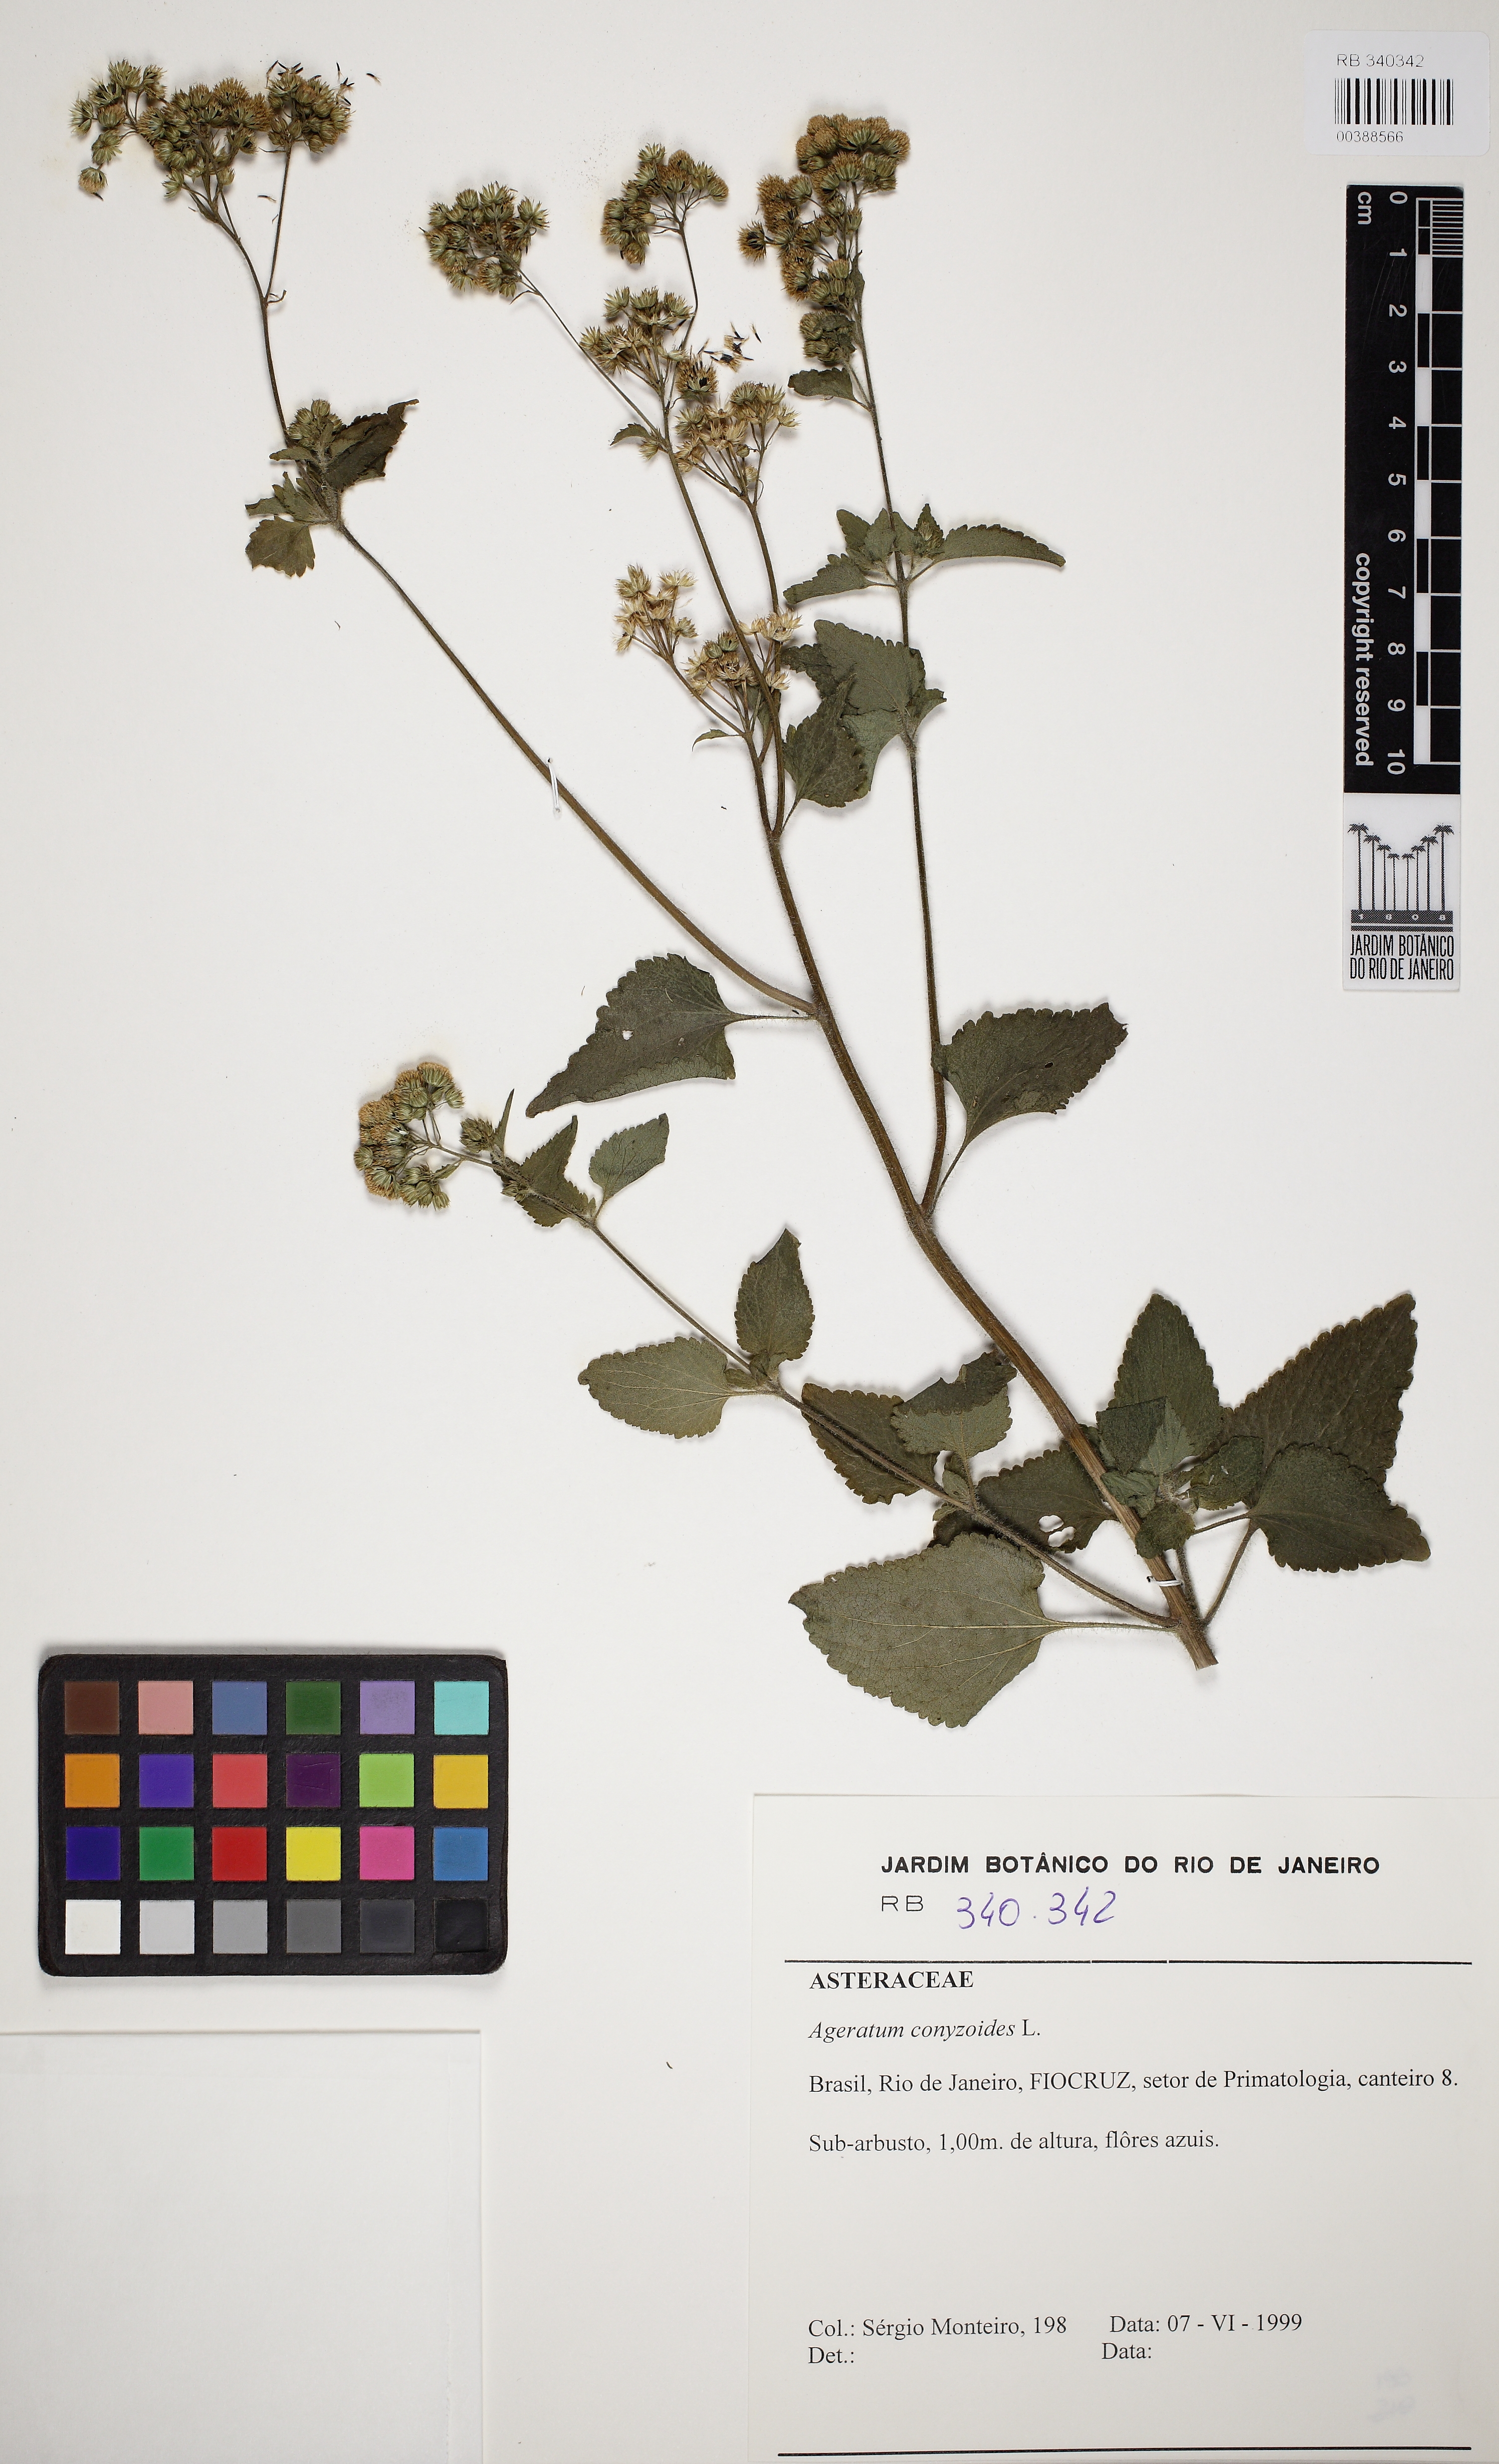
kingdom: Plantae
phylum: Tracheophyta
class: Magnoliopsida
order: Asterales
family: Asteraceae
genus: Ageratum
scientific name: Ageratum conyzoides
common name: Tropical whiteweed
